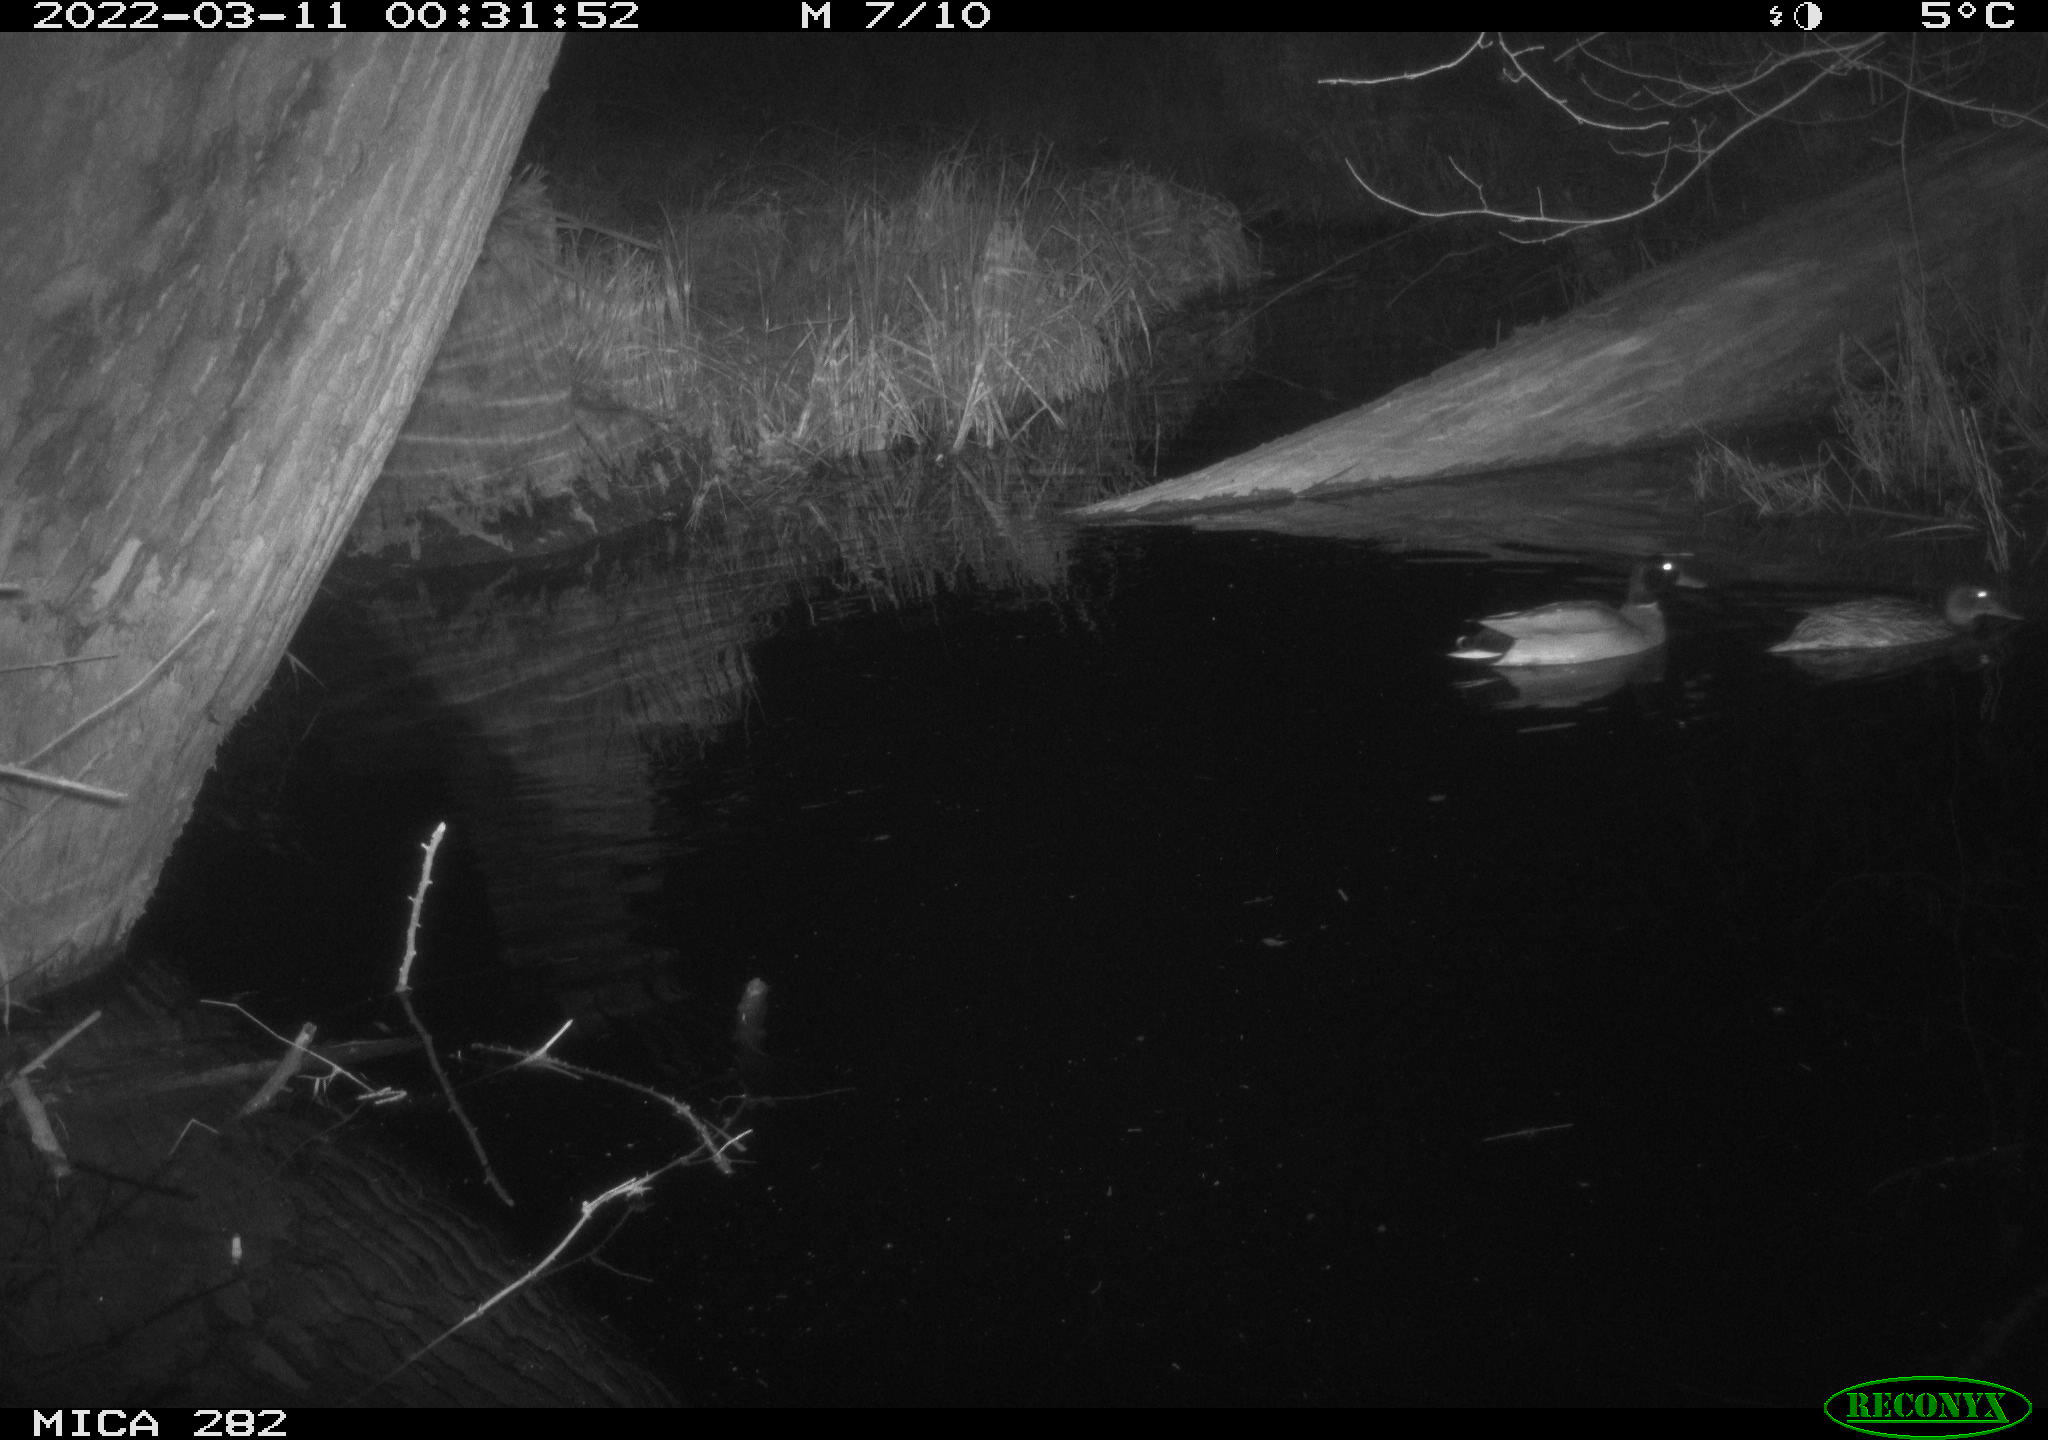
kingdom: Animalia
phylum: Chordata
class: Aves
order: Anseriformes
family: Anatidae
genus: Anas
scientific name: Anas platyrhynchos
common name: Mallard
